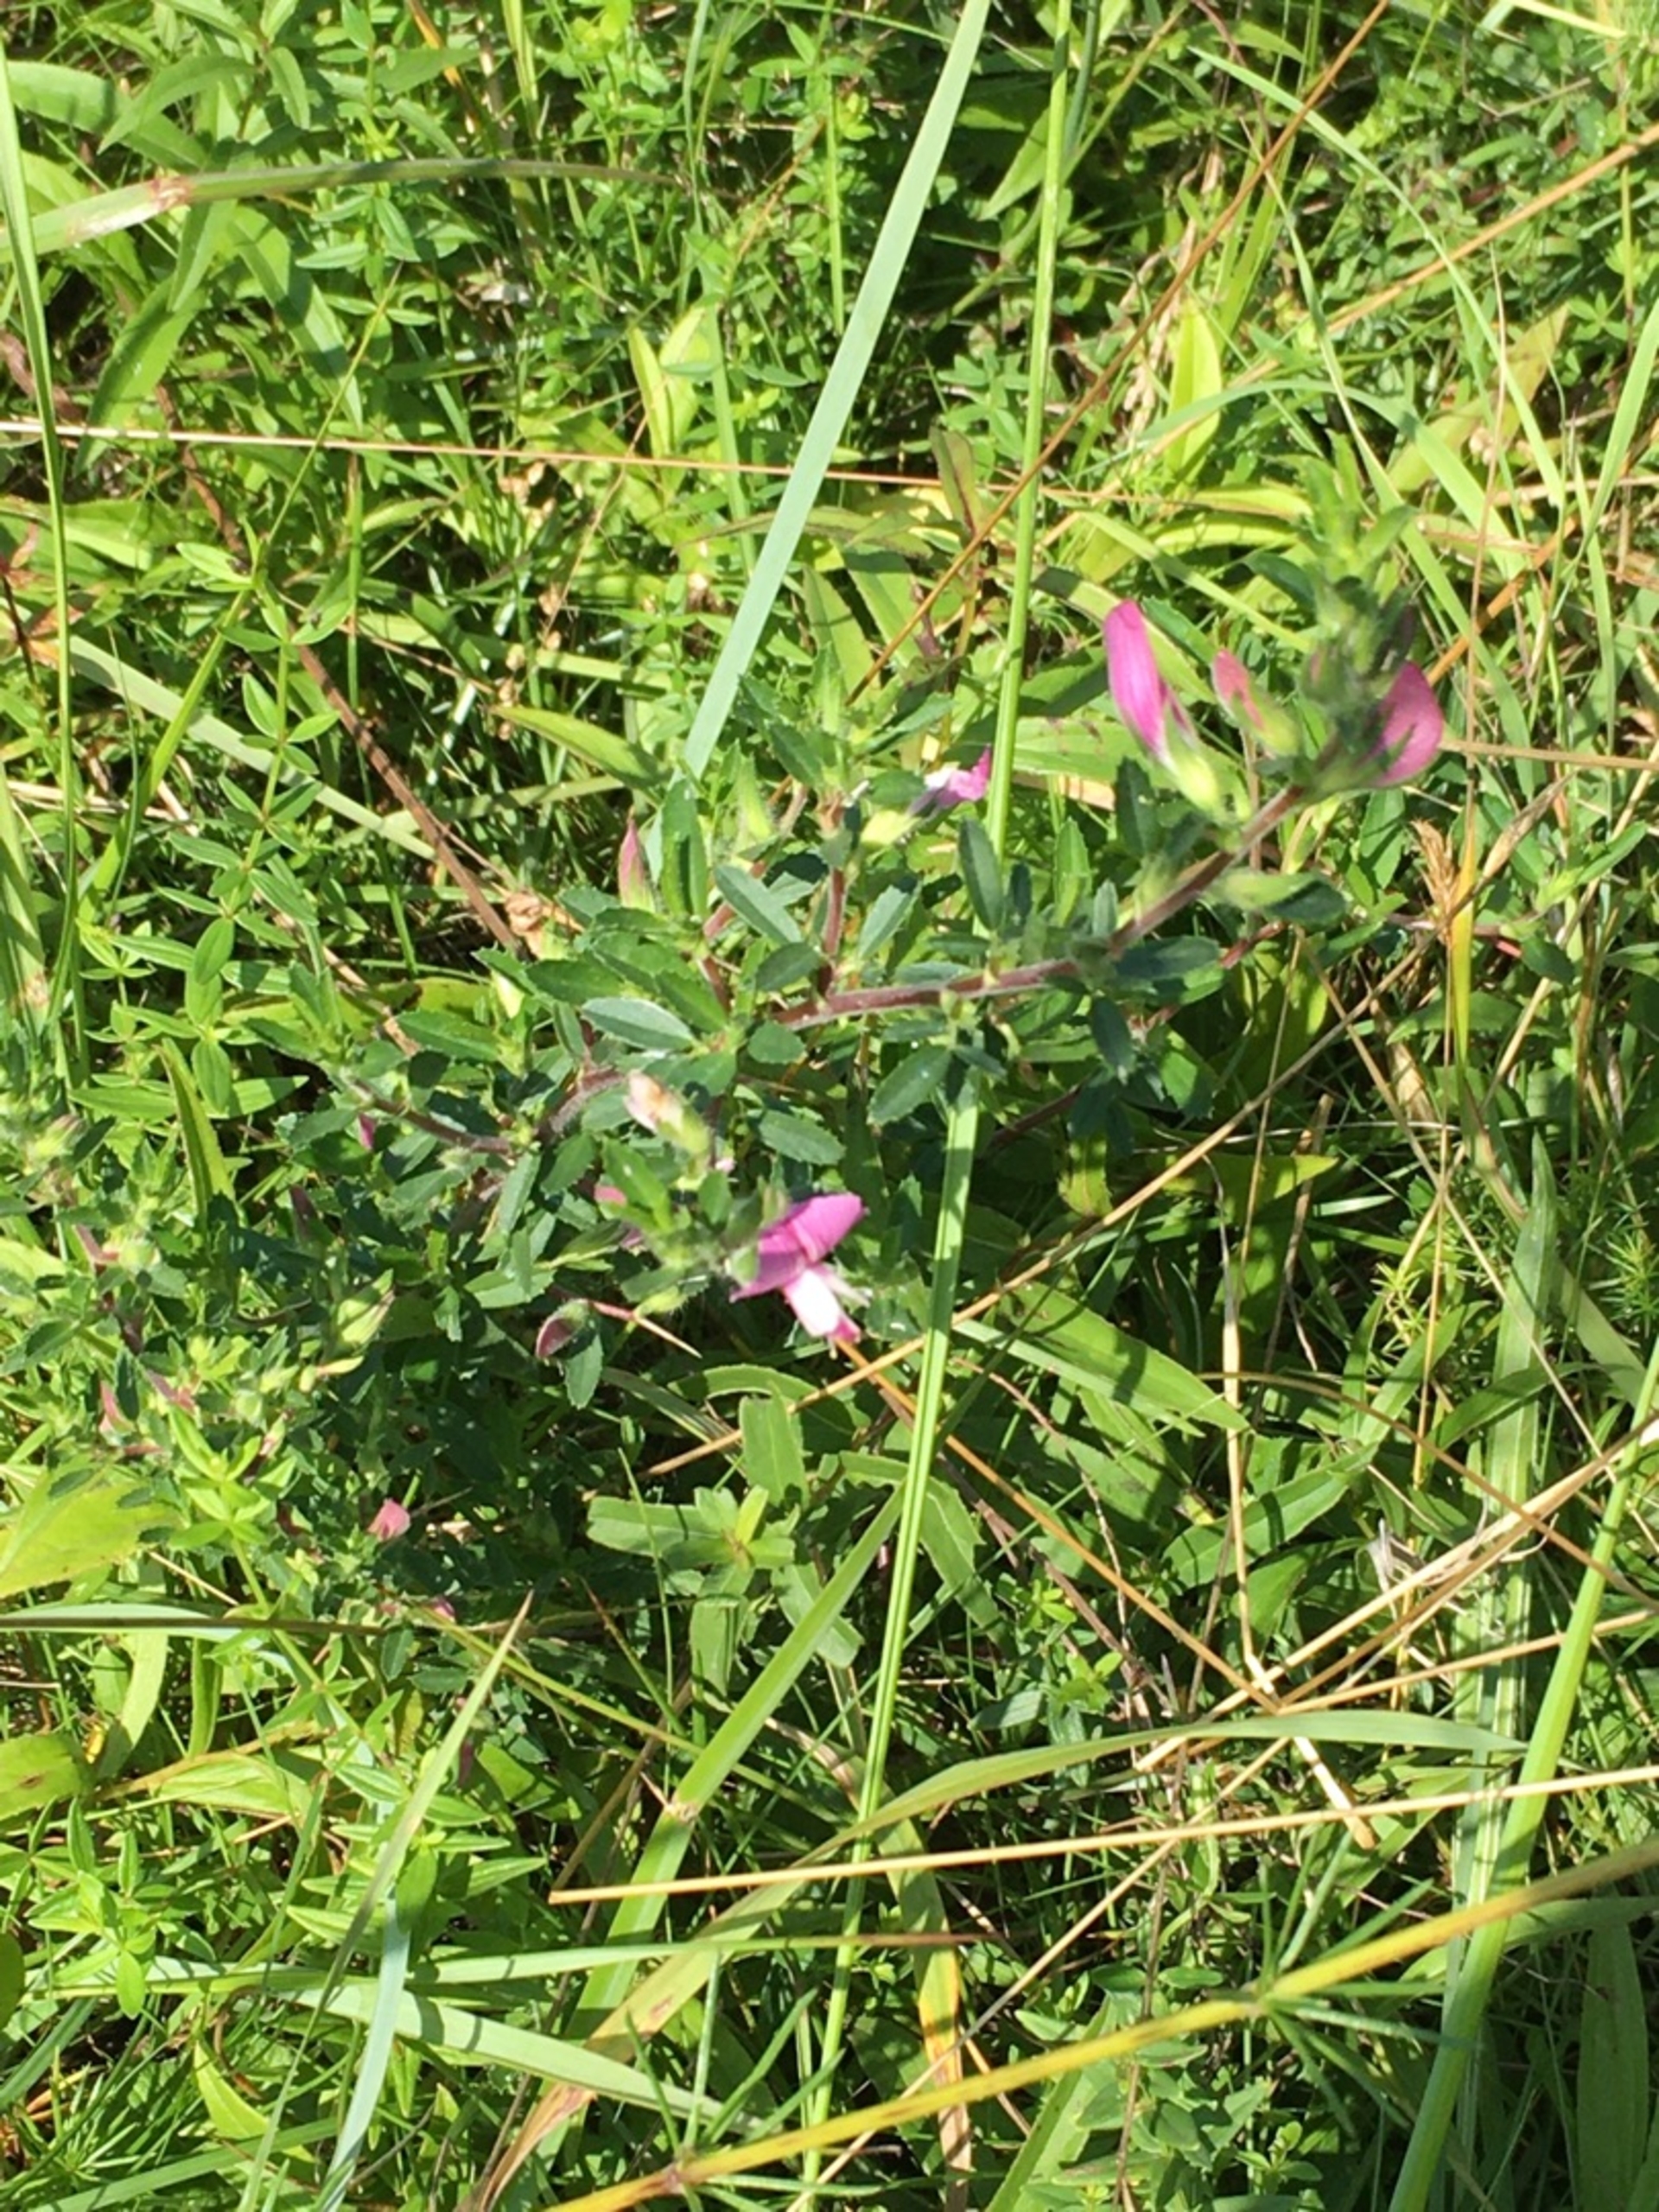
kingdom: Plantae
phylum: Tracheophyta
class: Magnoliopsida
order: Fabales
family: Fabaceae
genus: Ononis
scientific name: Ononis spinosa
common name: Mark-krageklo
